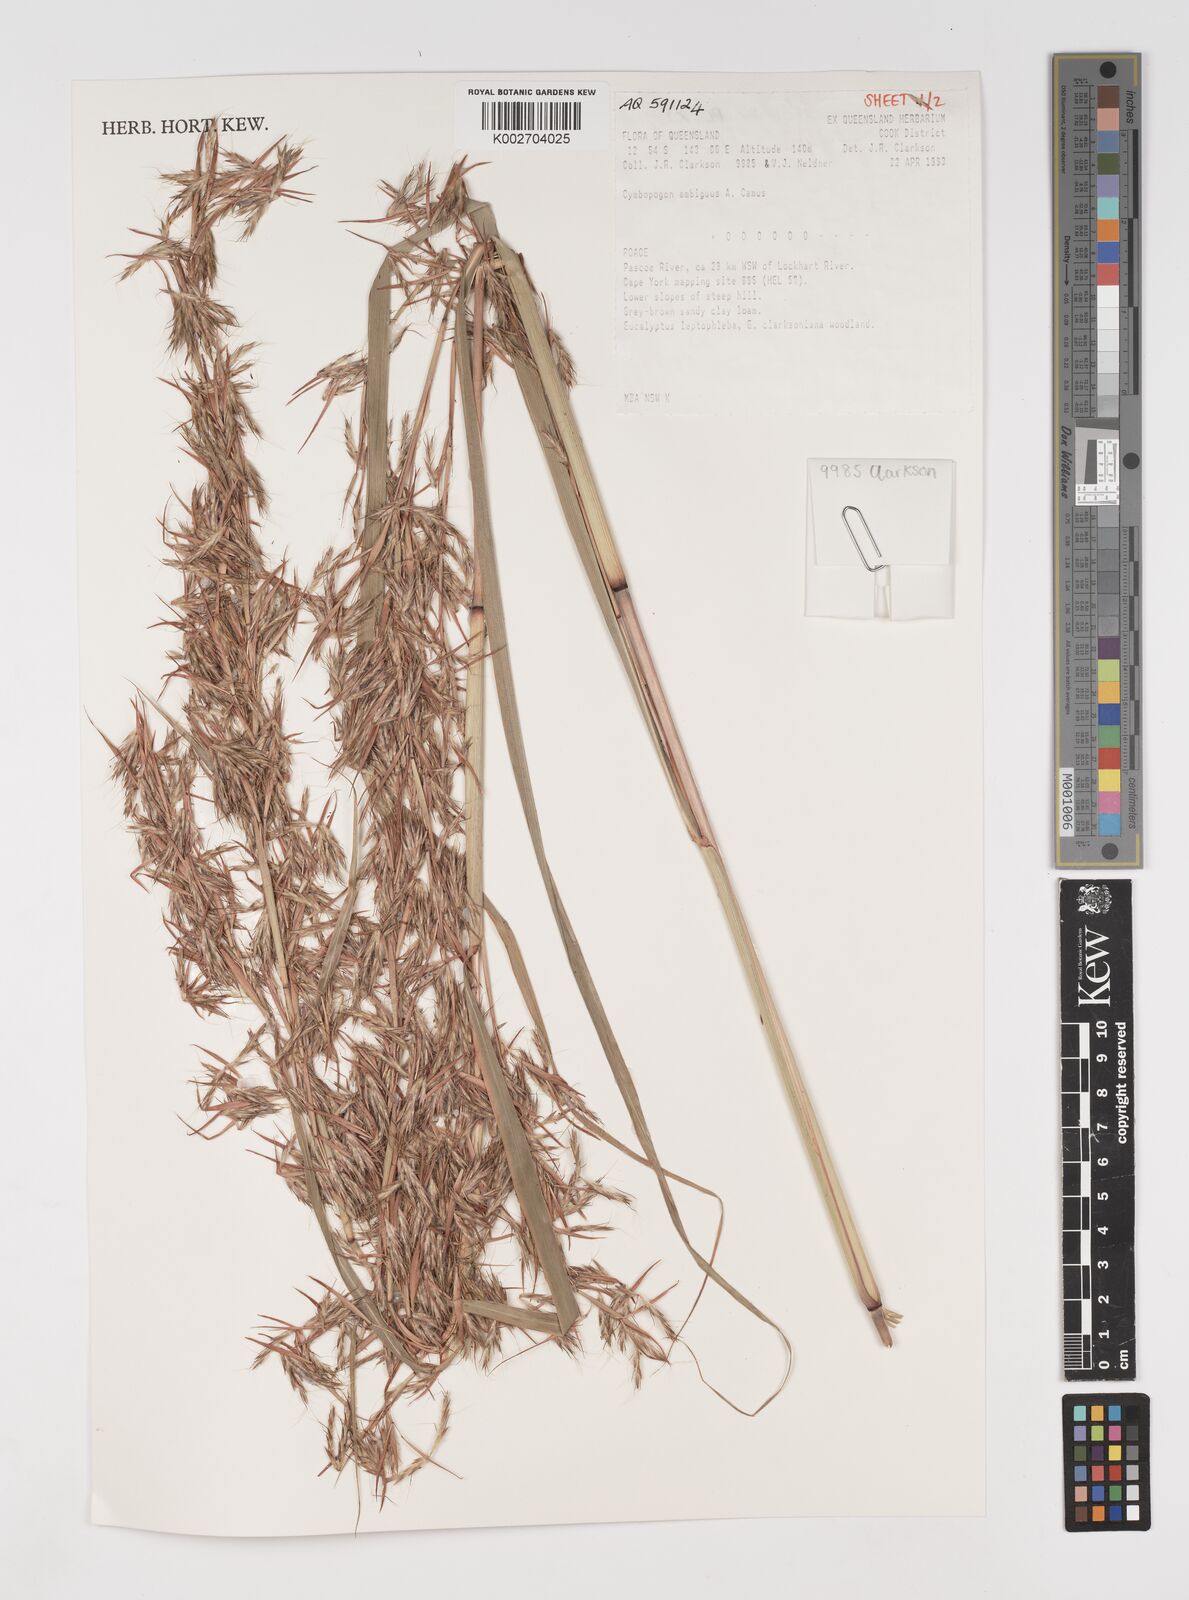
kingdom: Plantae
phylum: Tracheophyta
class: Liliopsida
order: Poales
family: Poaceae
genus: Cymbopogon
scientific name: Cymbopogon ambiguus
